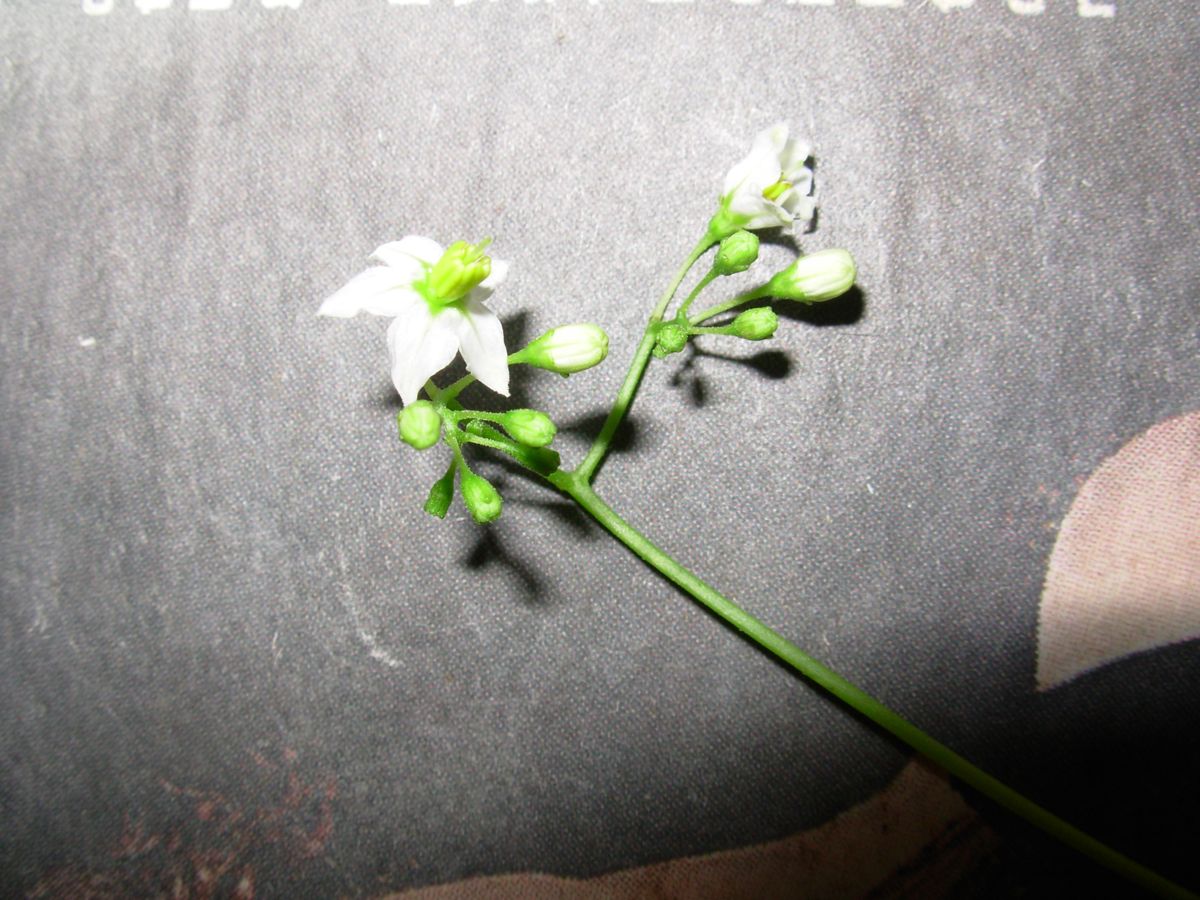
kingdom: Plantae
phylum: Tracheophyta
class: Magnoliopsida
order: Solanales
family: Solanaceae
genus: Solanum
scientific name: Solanum canense
